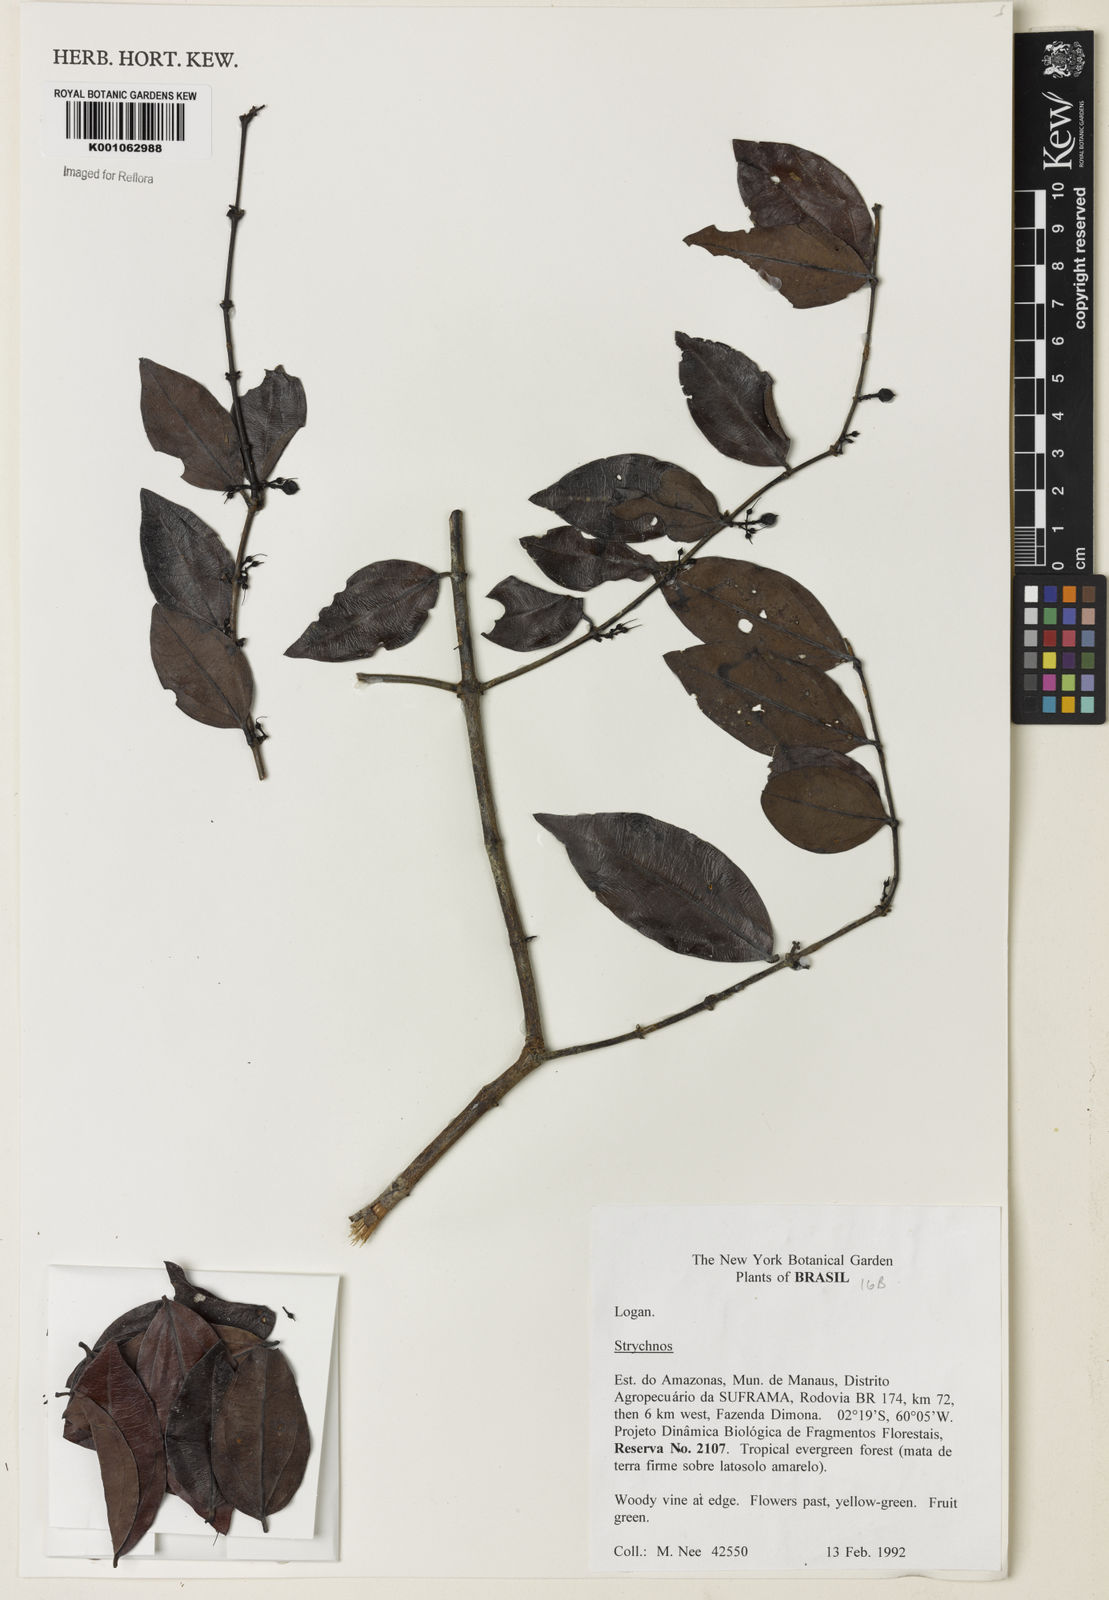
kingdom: Plantae
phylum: Tracheophyta
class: Magnoliopsida
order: Gentianales
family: Loganiaceae
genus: Strychnos
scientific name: Strychnos
